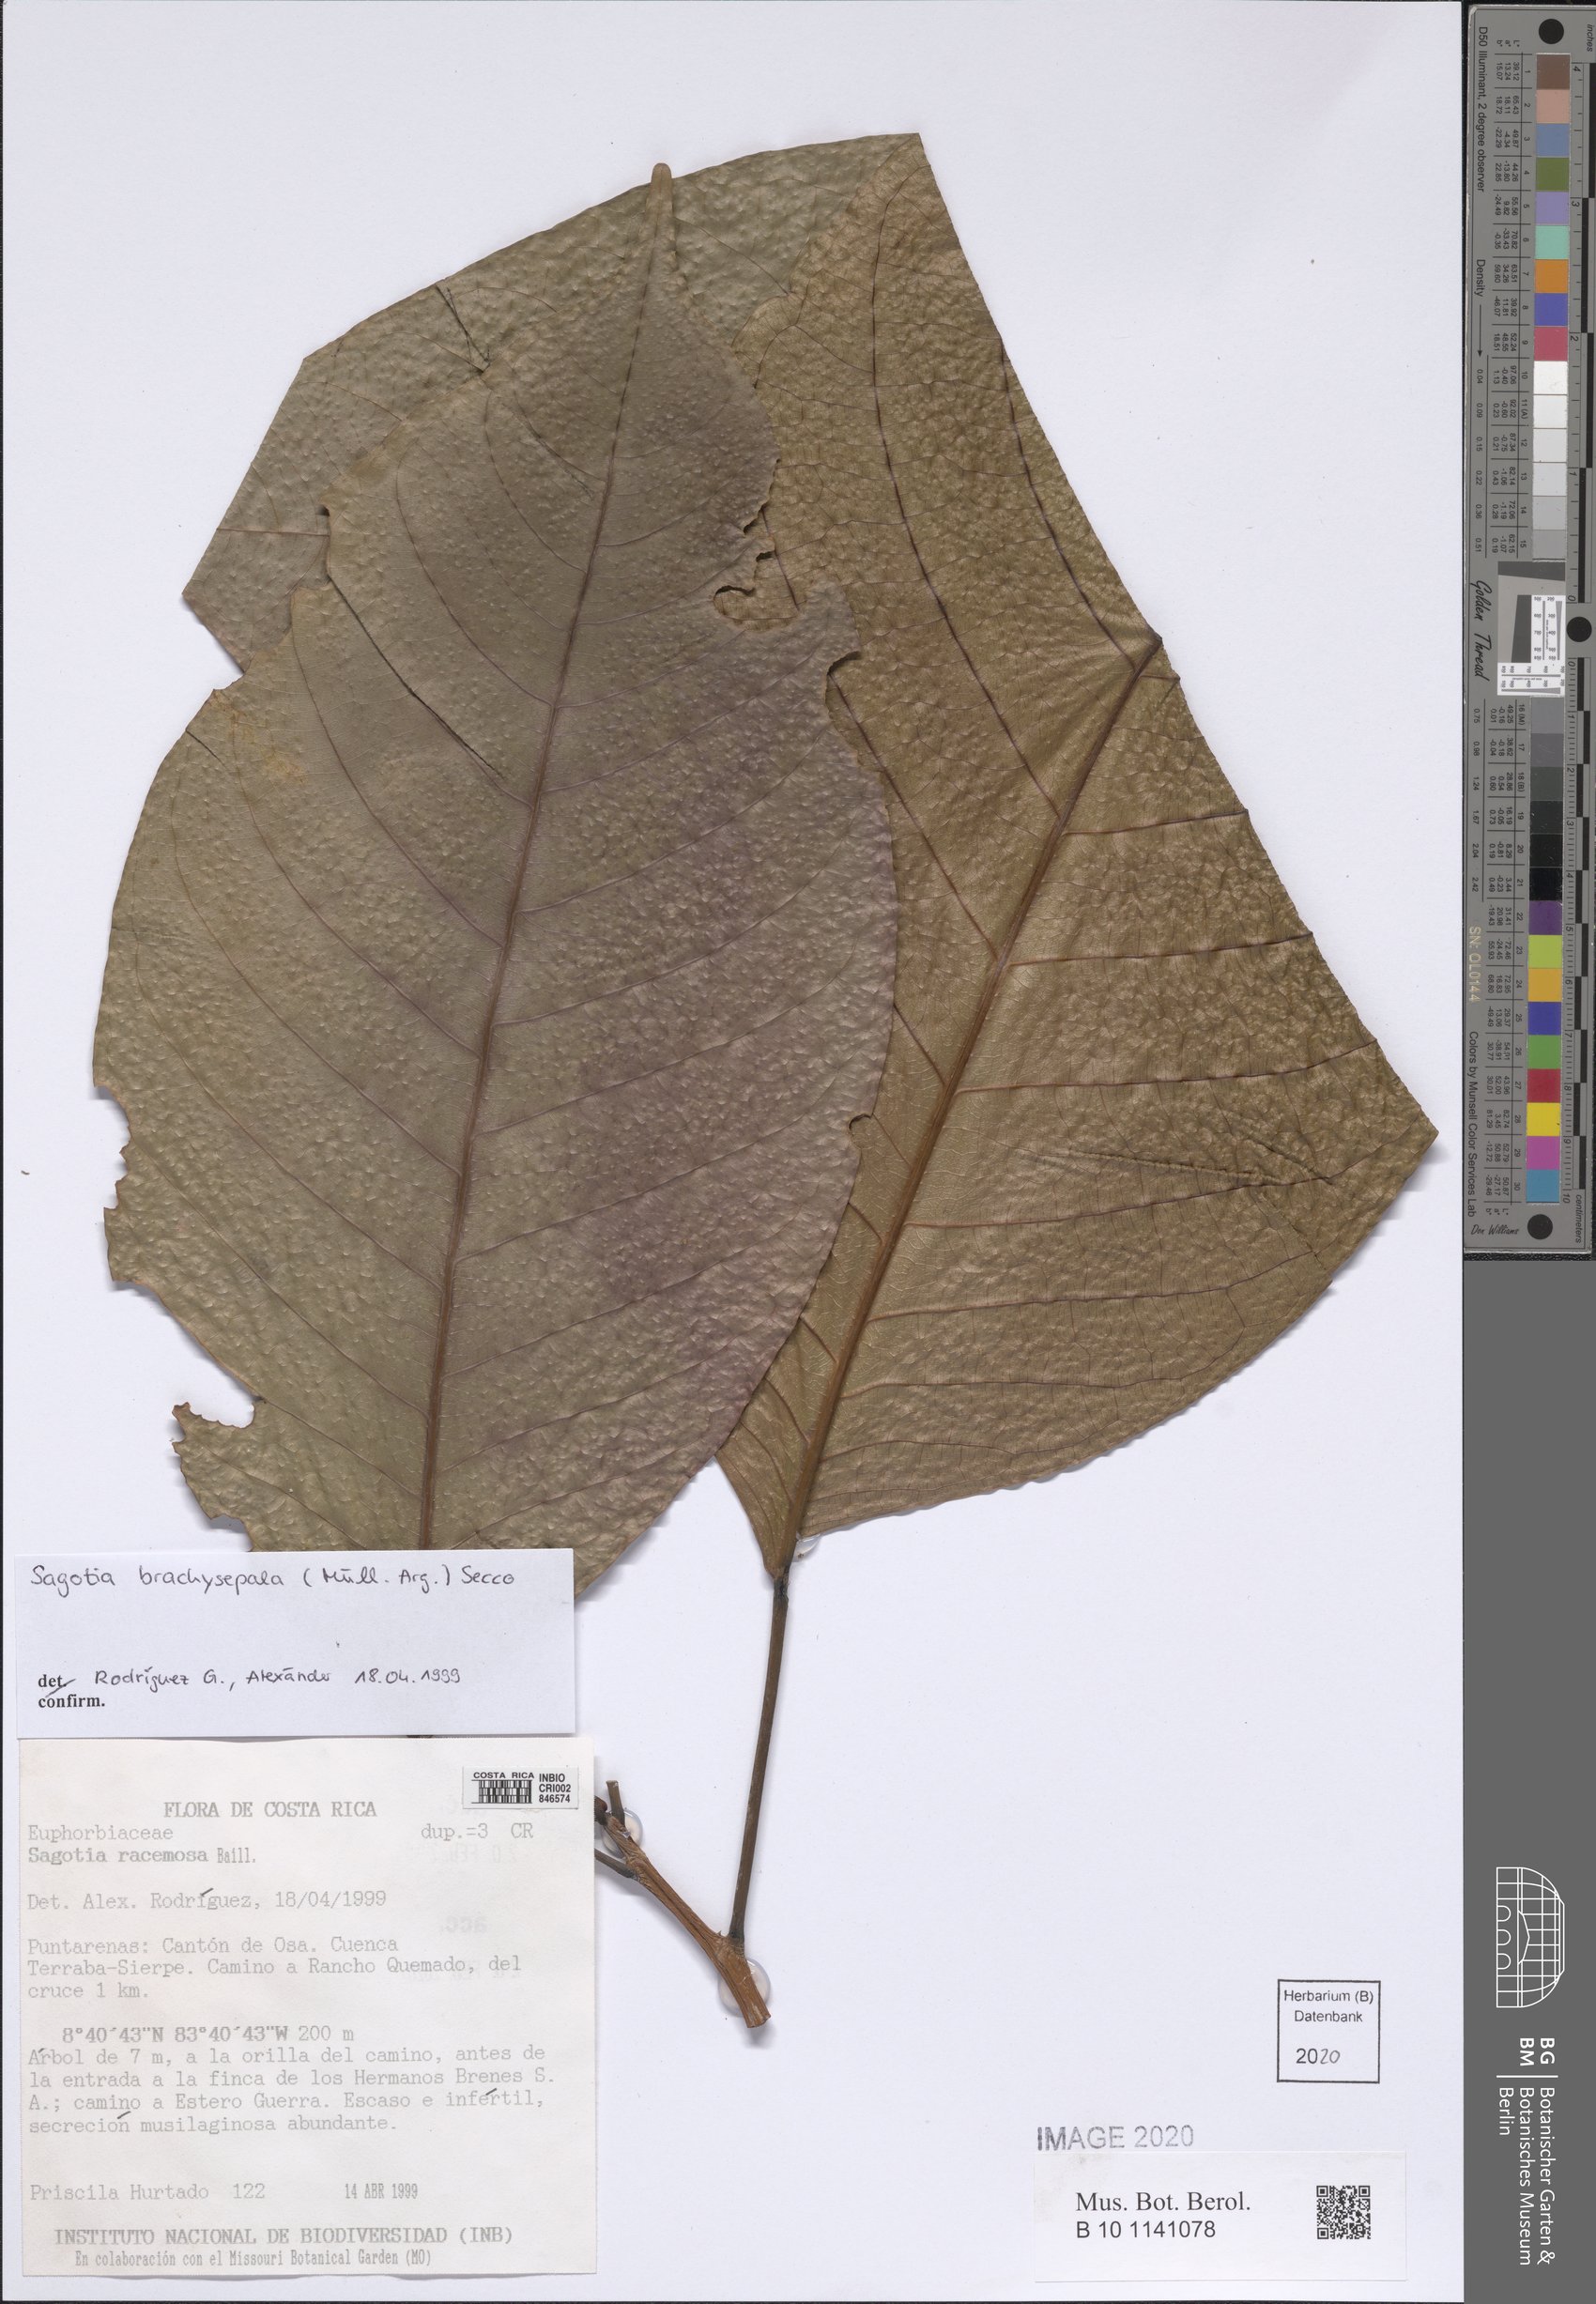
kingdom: Plantae
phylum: Tracheophyta
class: Magnoliopsida
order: Malpighiales
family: Euphorbiaceae
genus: Sagotia
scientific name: Sagotia brachysepala
